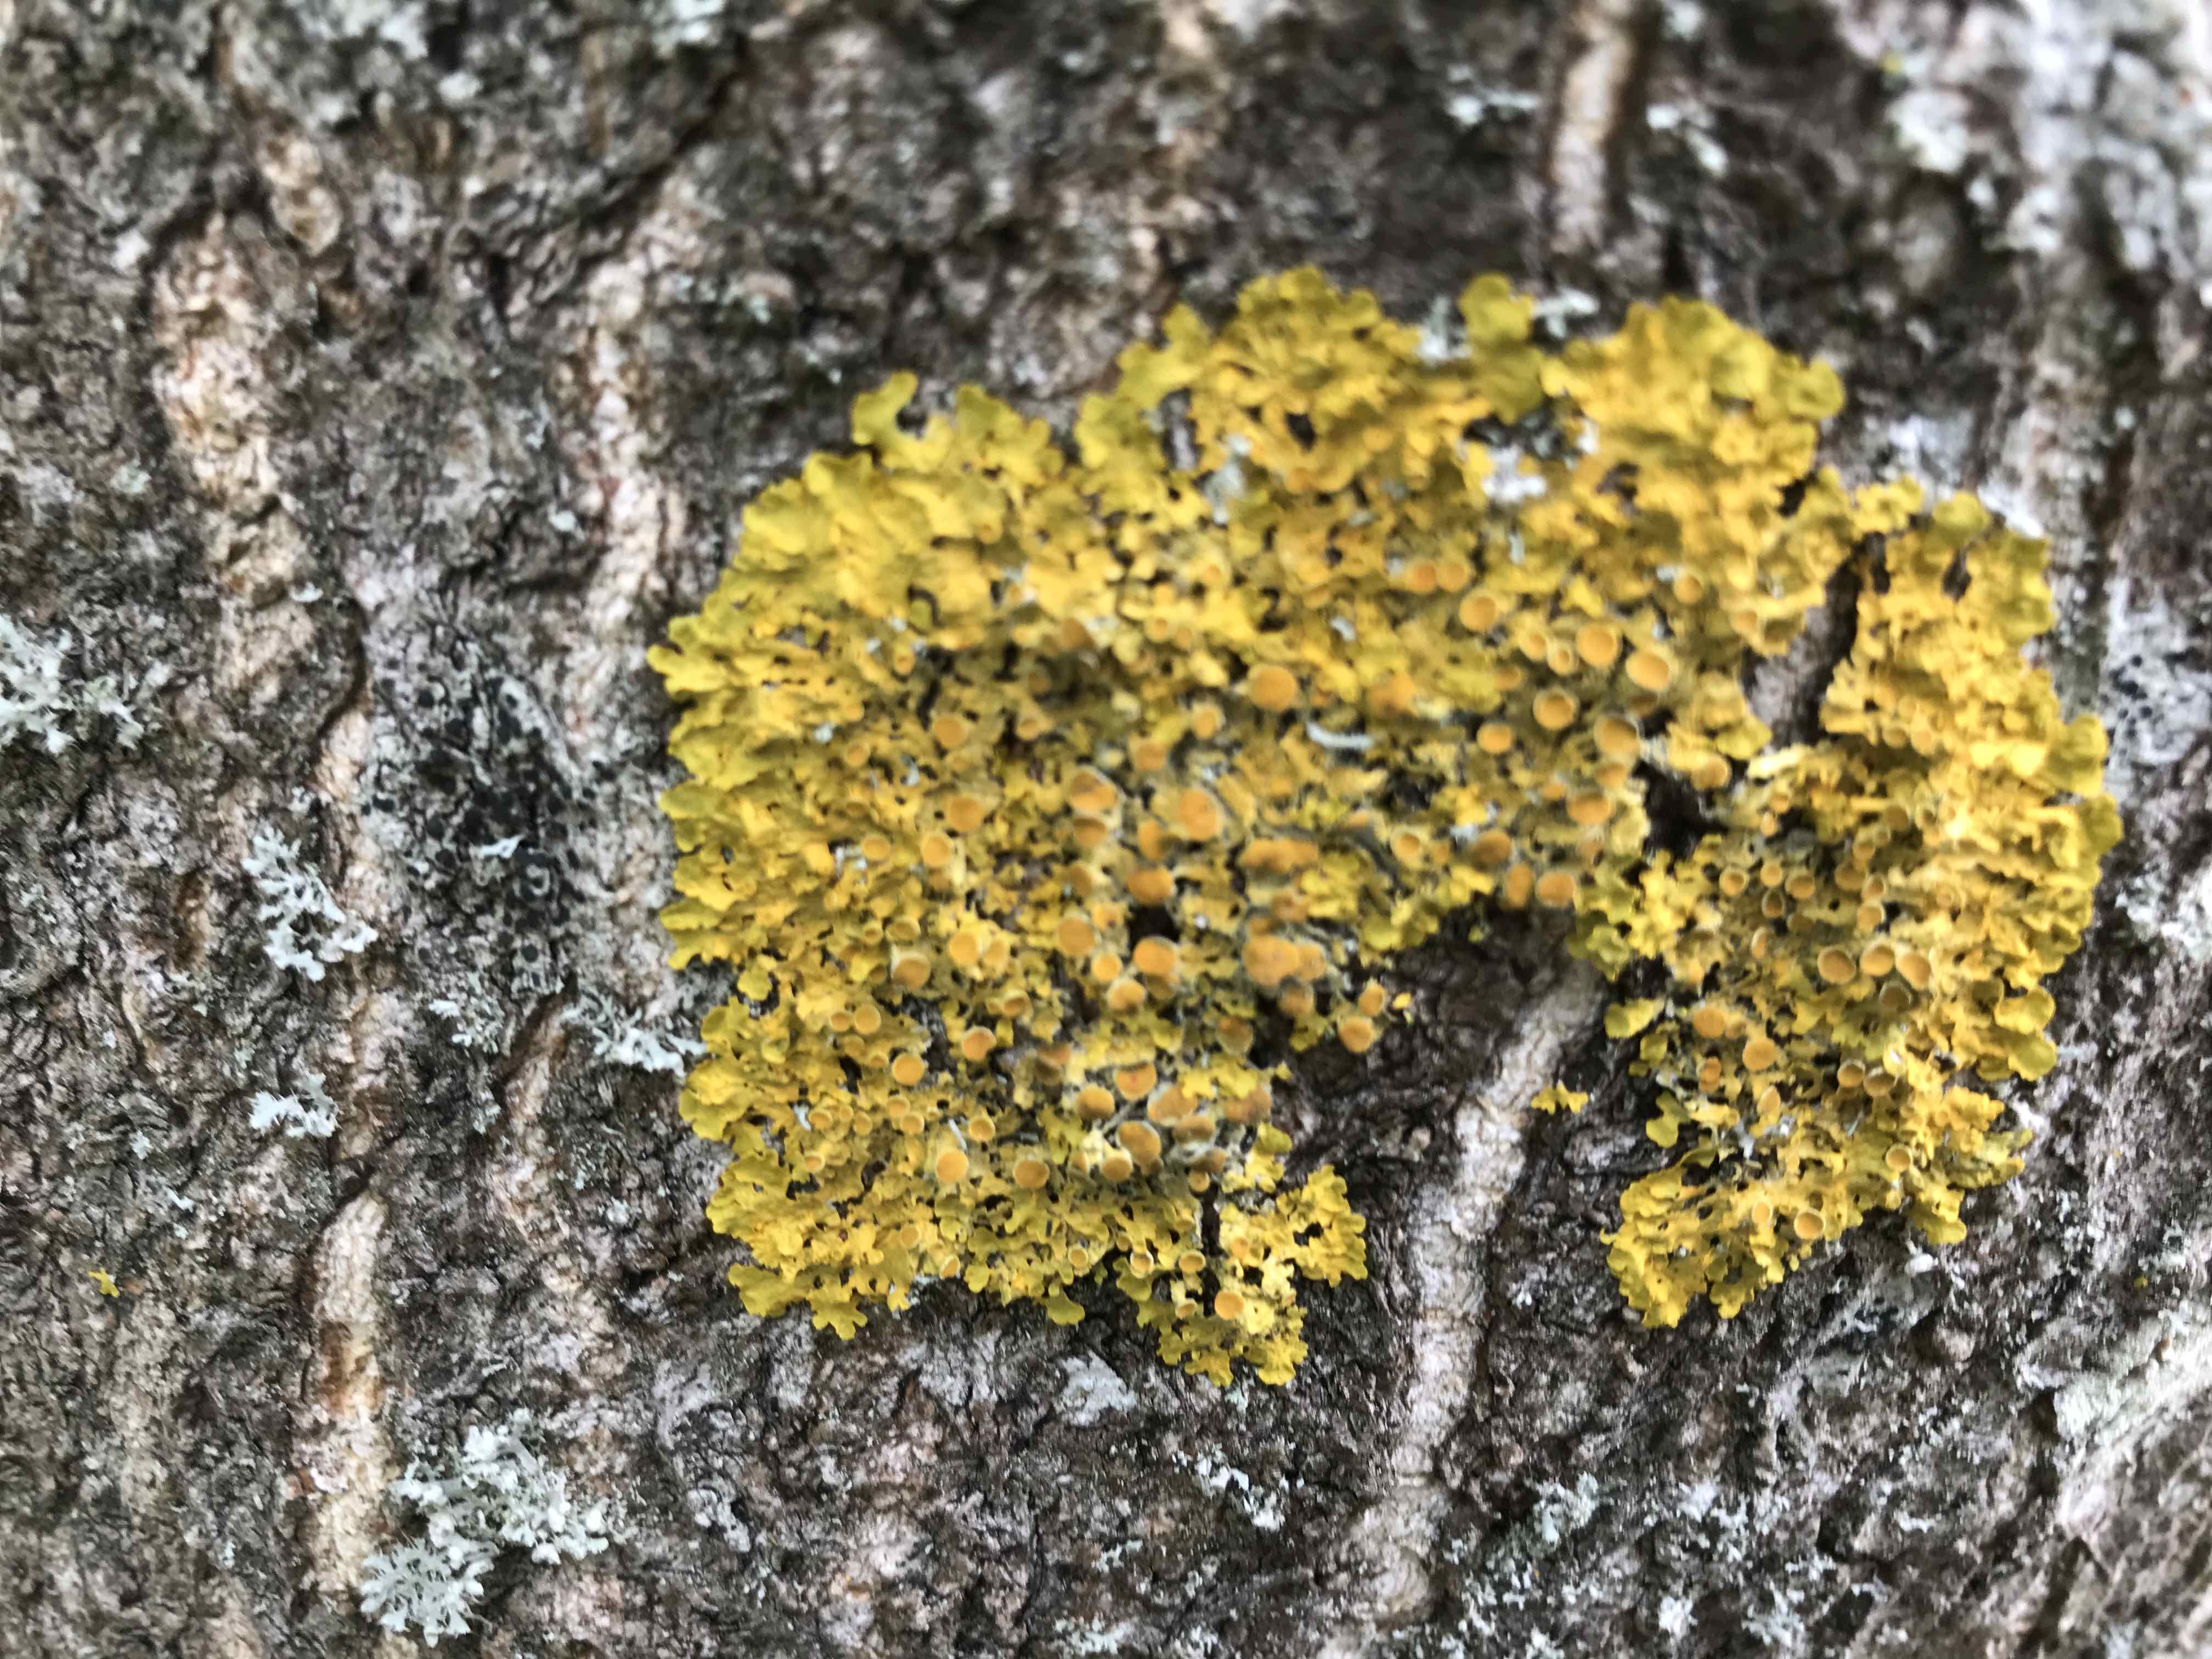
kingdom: Fungi
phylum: Ascomycota
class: Lecanoromycetes
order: Teloschistales
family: Teloschistaceae
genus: Xanthoria
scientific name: Xanthoria parietina
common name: almindelig væggelav
